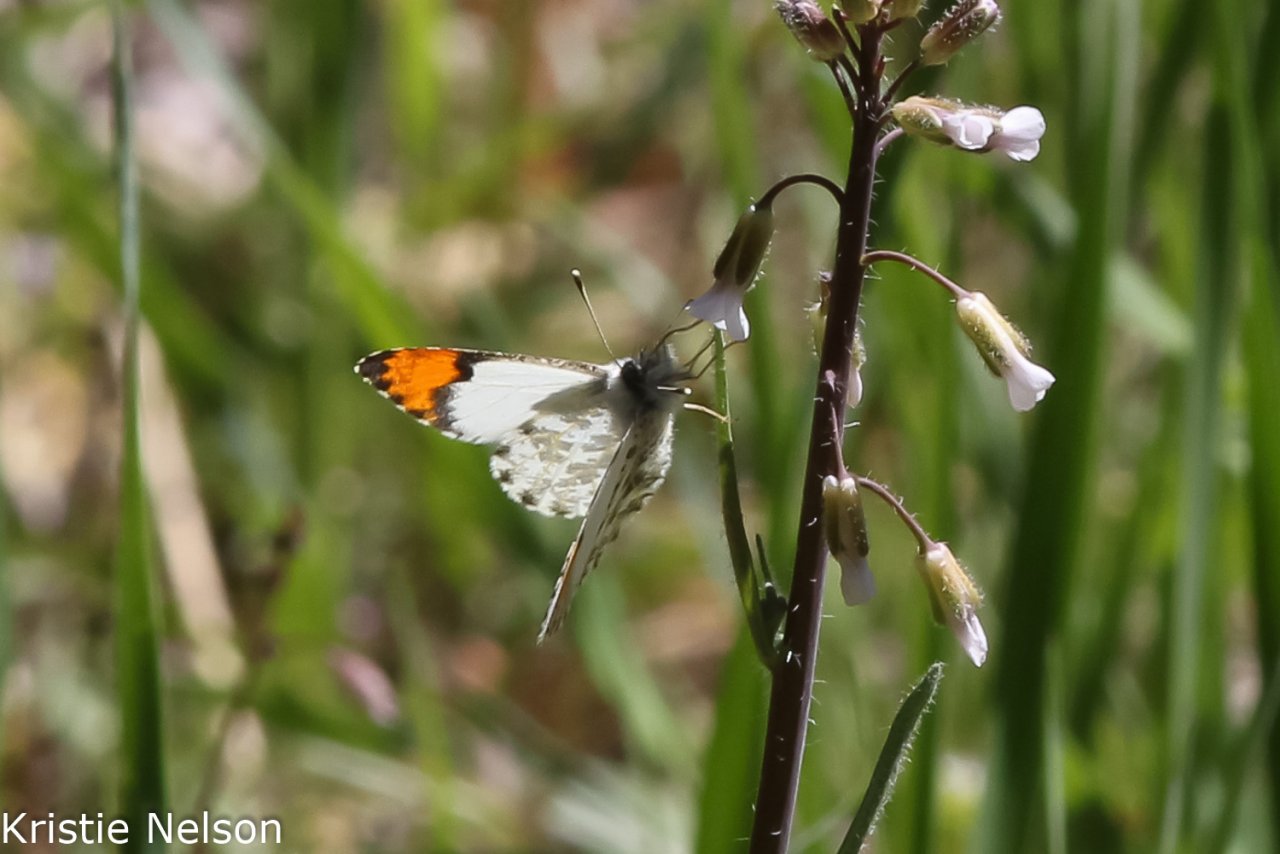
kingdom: Animalia
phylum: Arthropoda
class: Insecta
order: Lepidoptera
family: Pieridae
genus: Anthocharis
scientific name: Anthocharis sara
